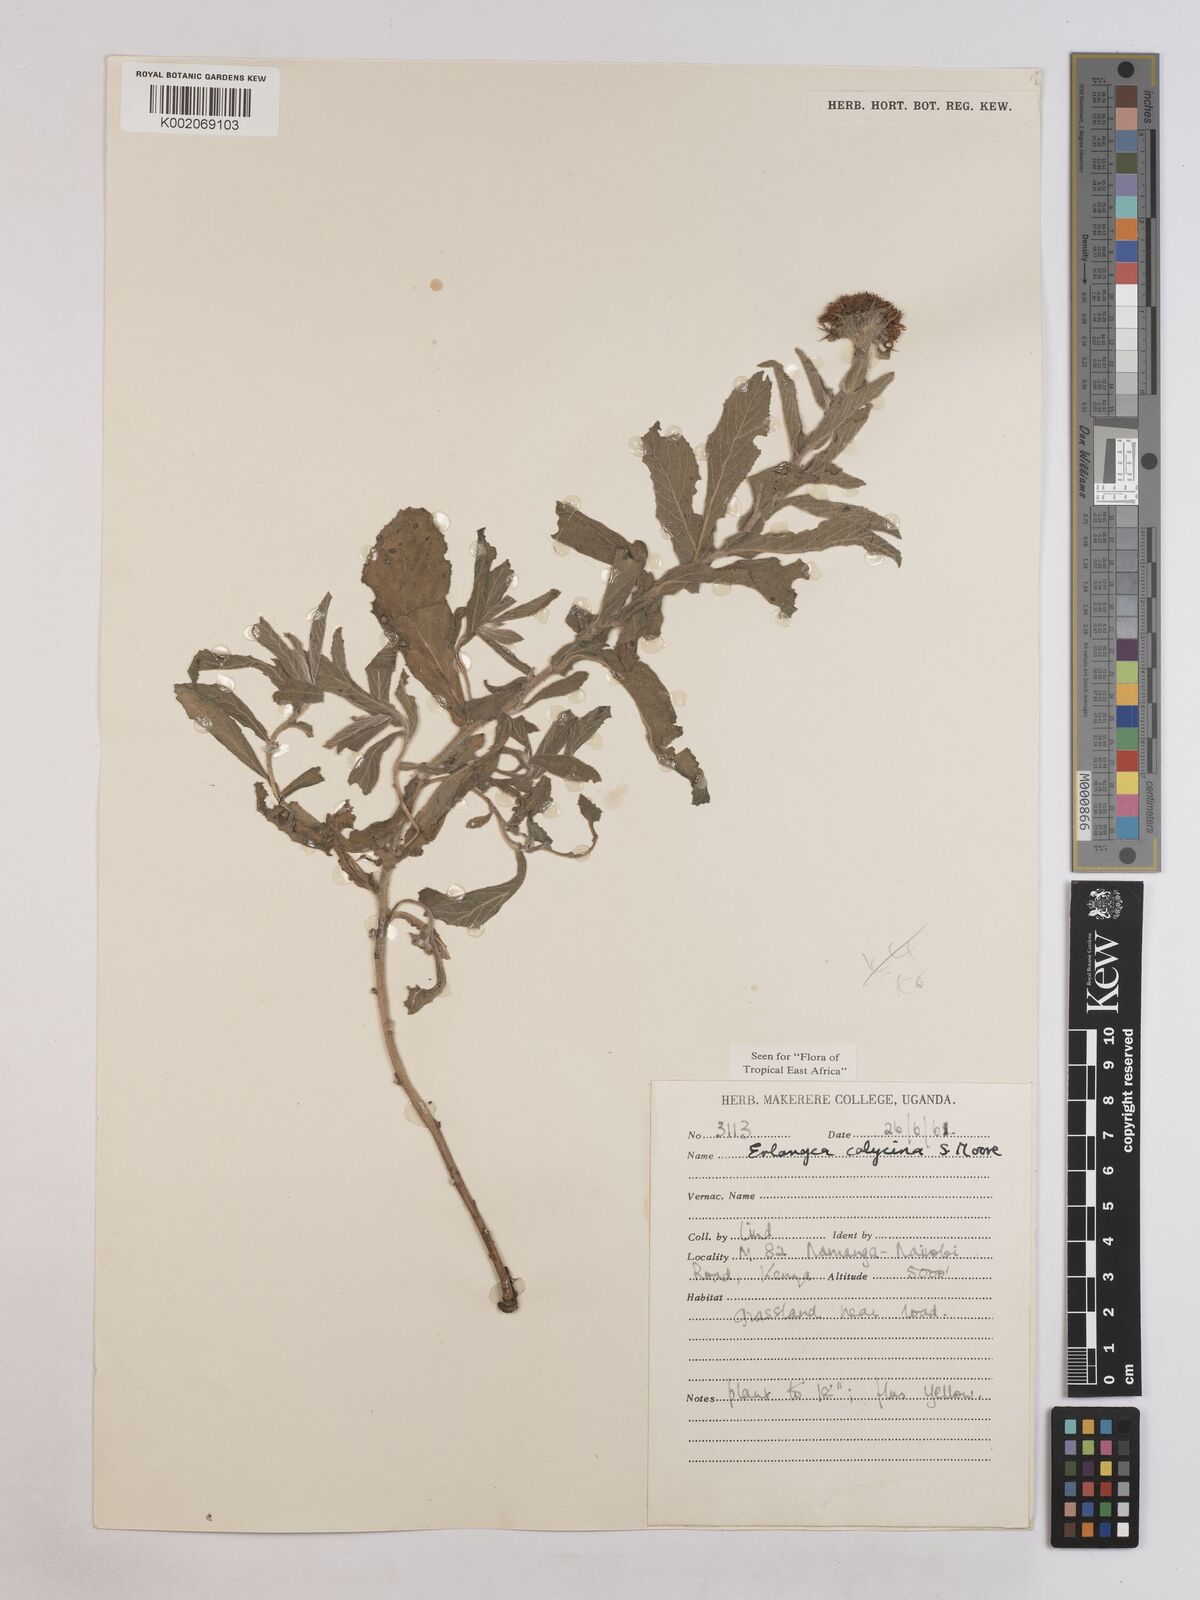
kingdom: Plantae
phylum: Tracheophyta
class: Magnoliopsida
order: Asterales
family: Asteraceae
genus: Erlangea
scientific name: Erlangea calycina
